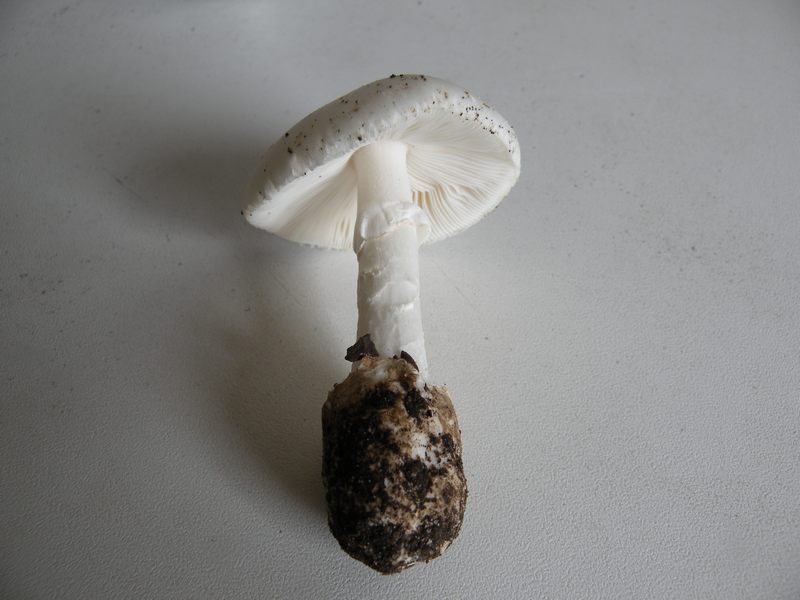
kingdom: Fungi
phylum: Basidiomycota
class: Agaricomycetes
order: Agaricales
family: Amanitaceae
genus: Amanita
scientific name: Amanita phalloides
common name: Death cap
